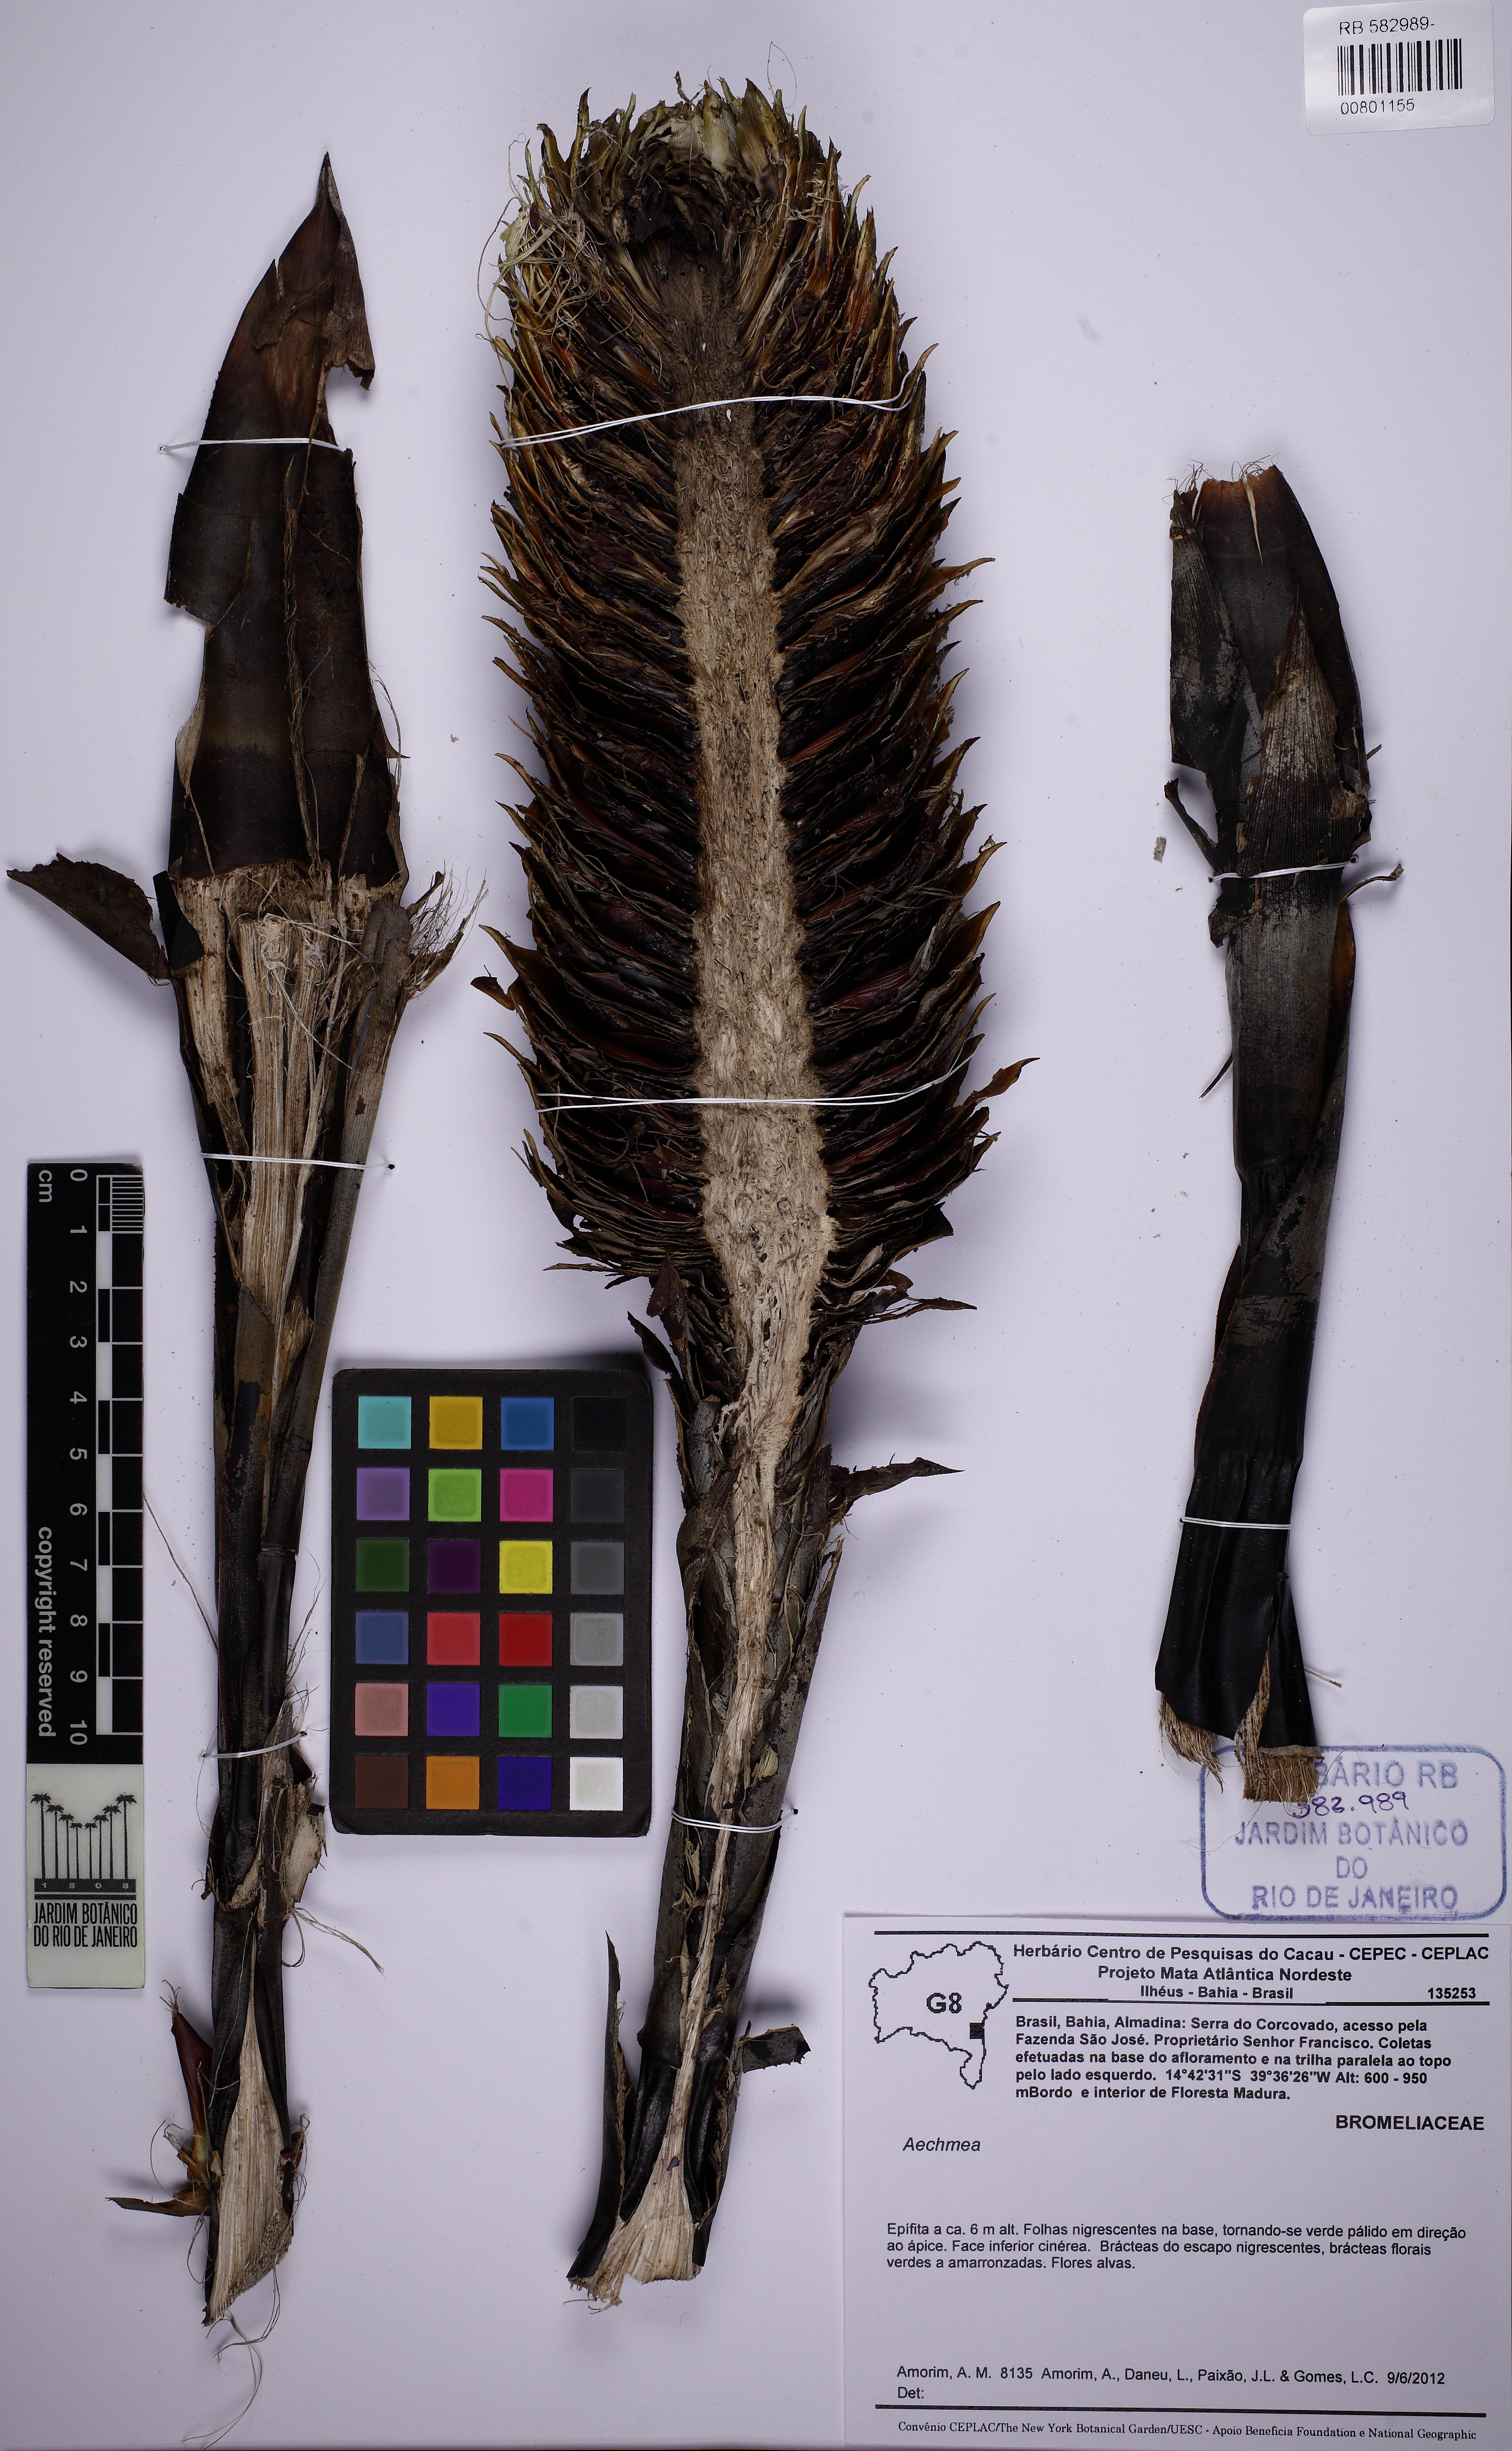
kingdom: Plantae
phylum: Tracheophyta
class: Liliopsida
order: Poales
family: Bromeliaceae
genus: Aechmea
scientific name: Aechmea digitata
